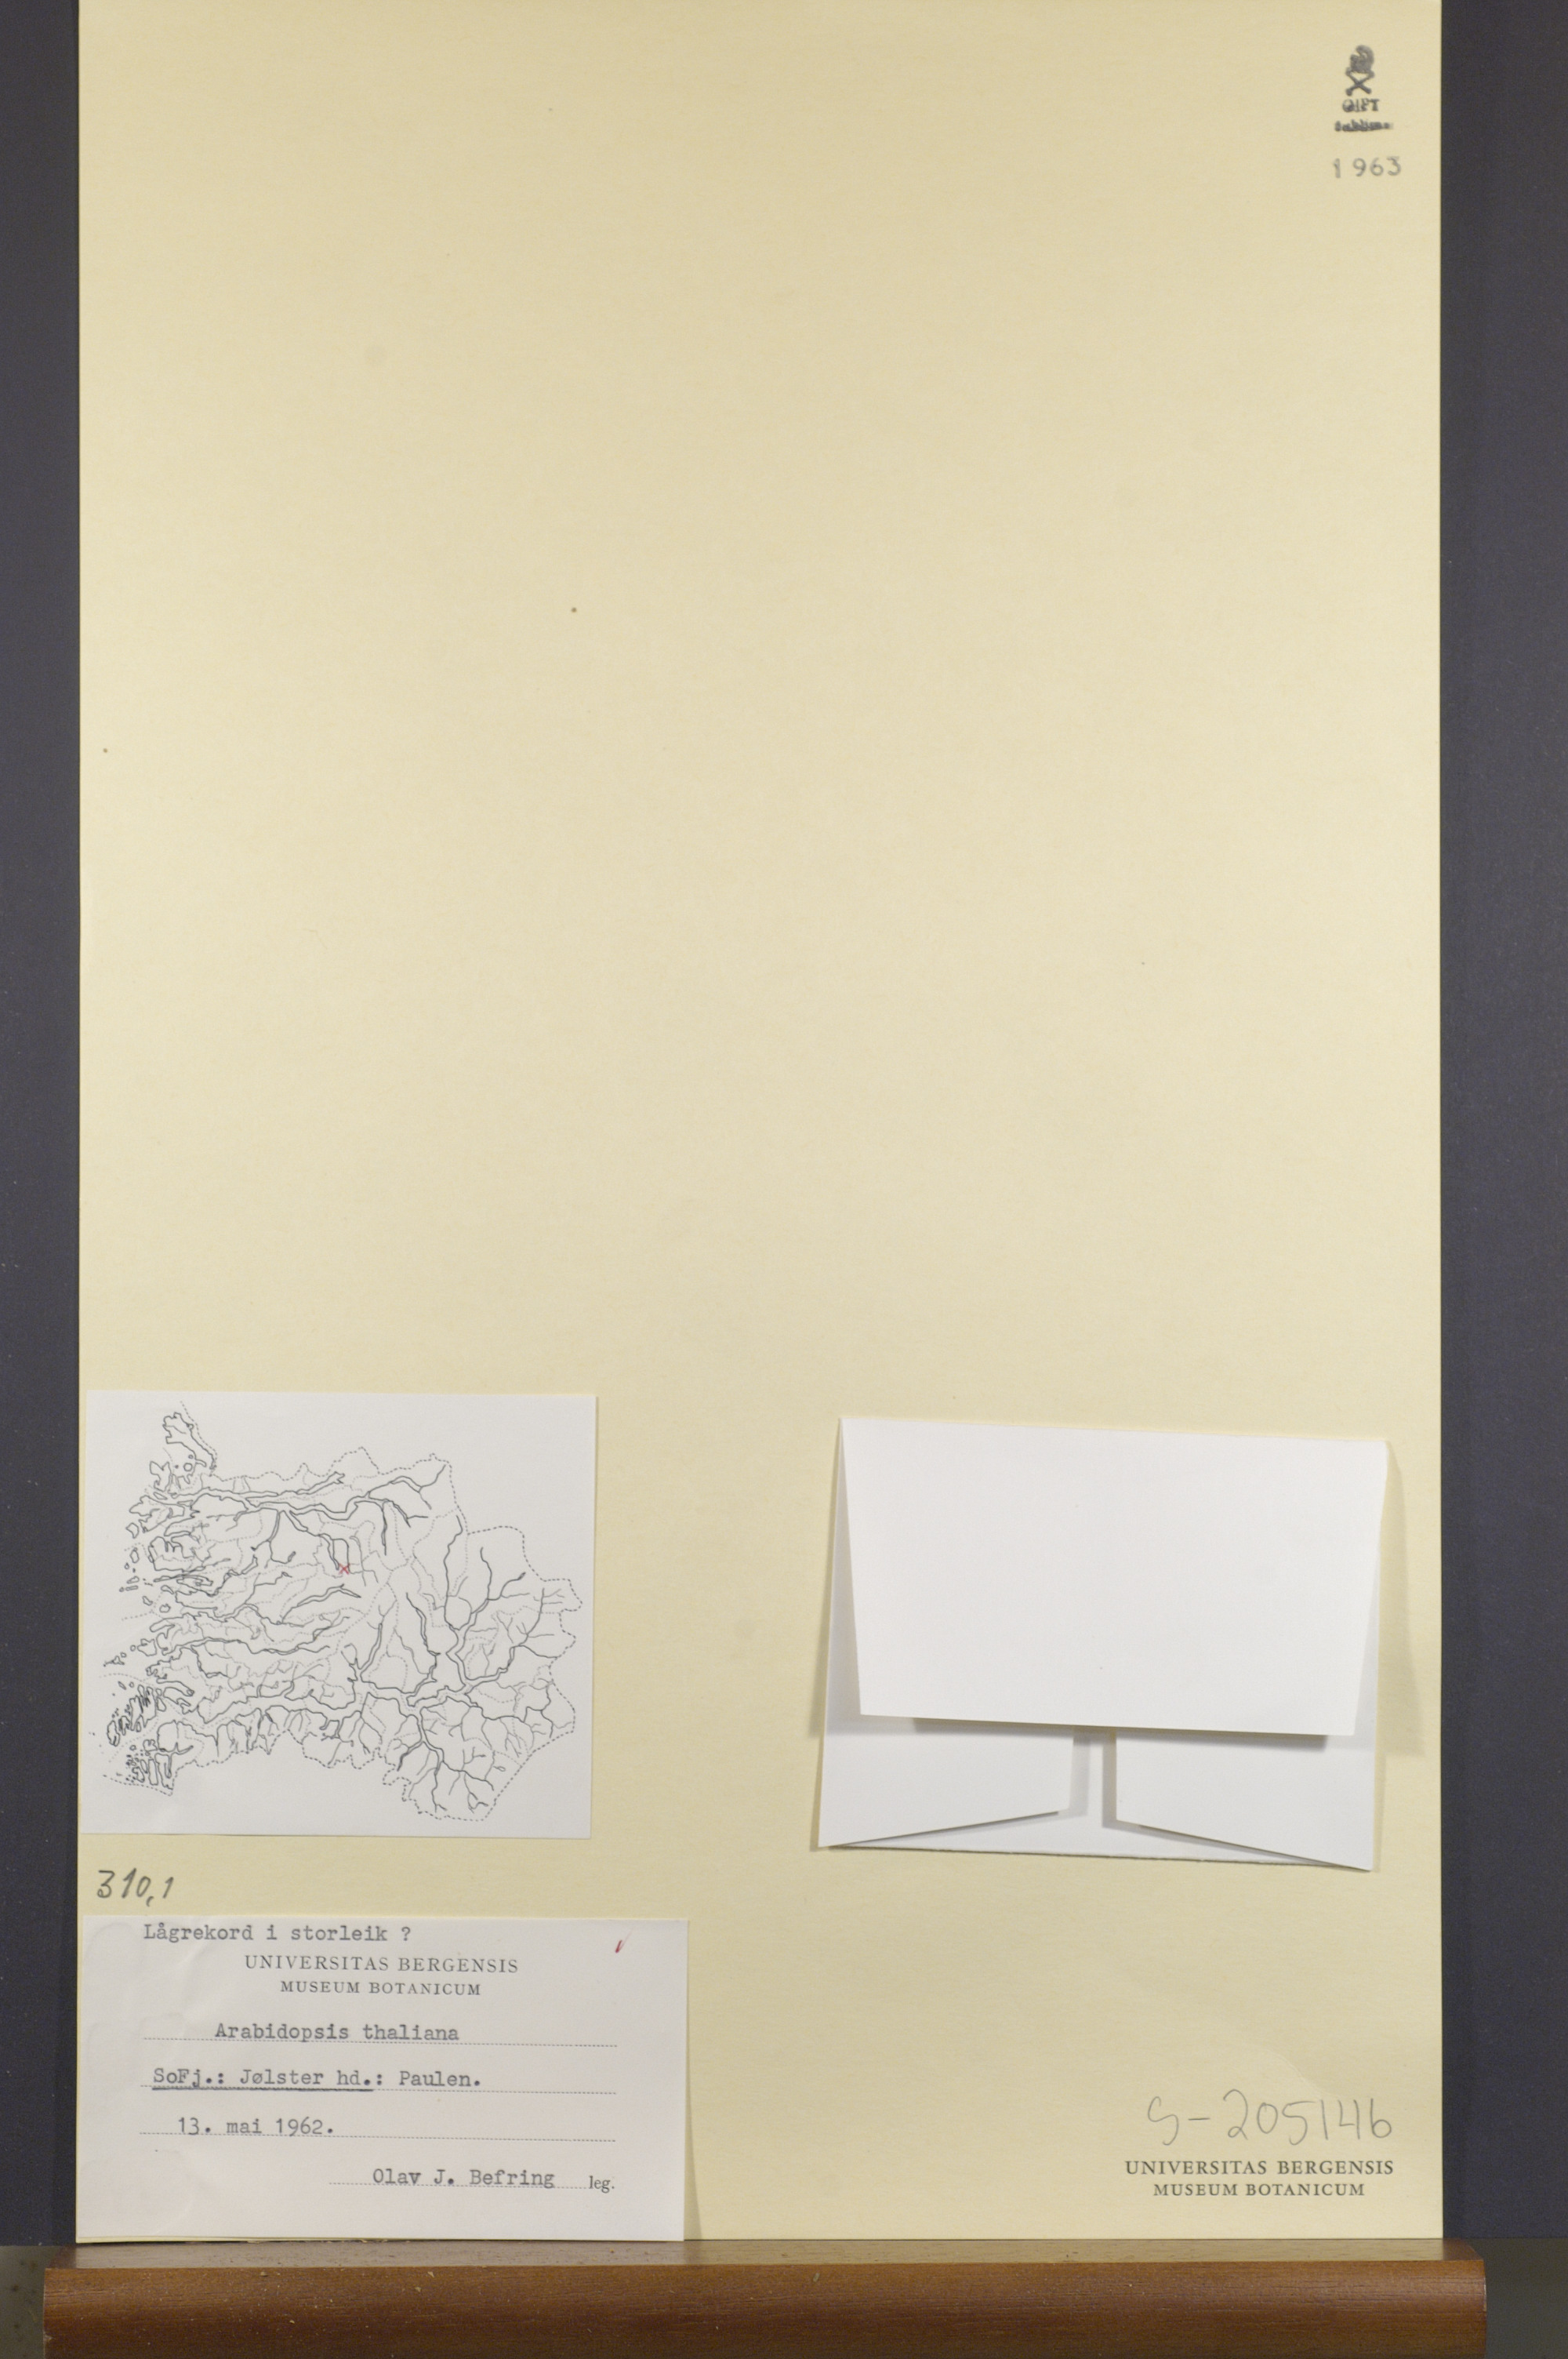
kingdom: Plantae
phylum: Tracheophyta
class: Magnoliopsida
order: Brassicales
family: Brassicaceae
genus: Arabidopsis
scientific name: Arabidopsis thaliana
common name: Thale cress
